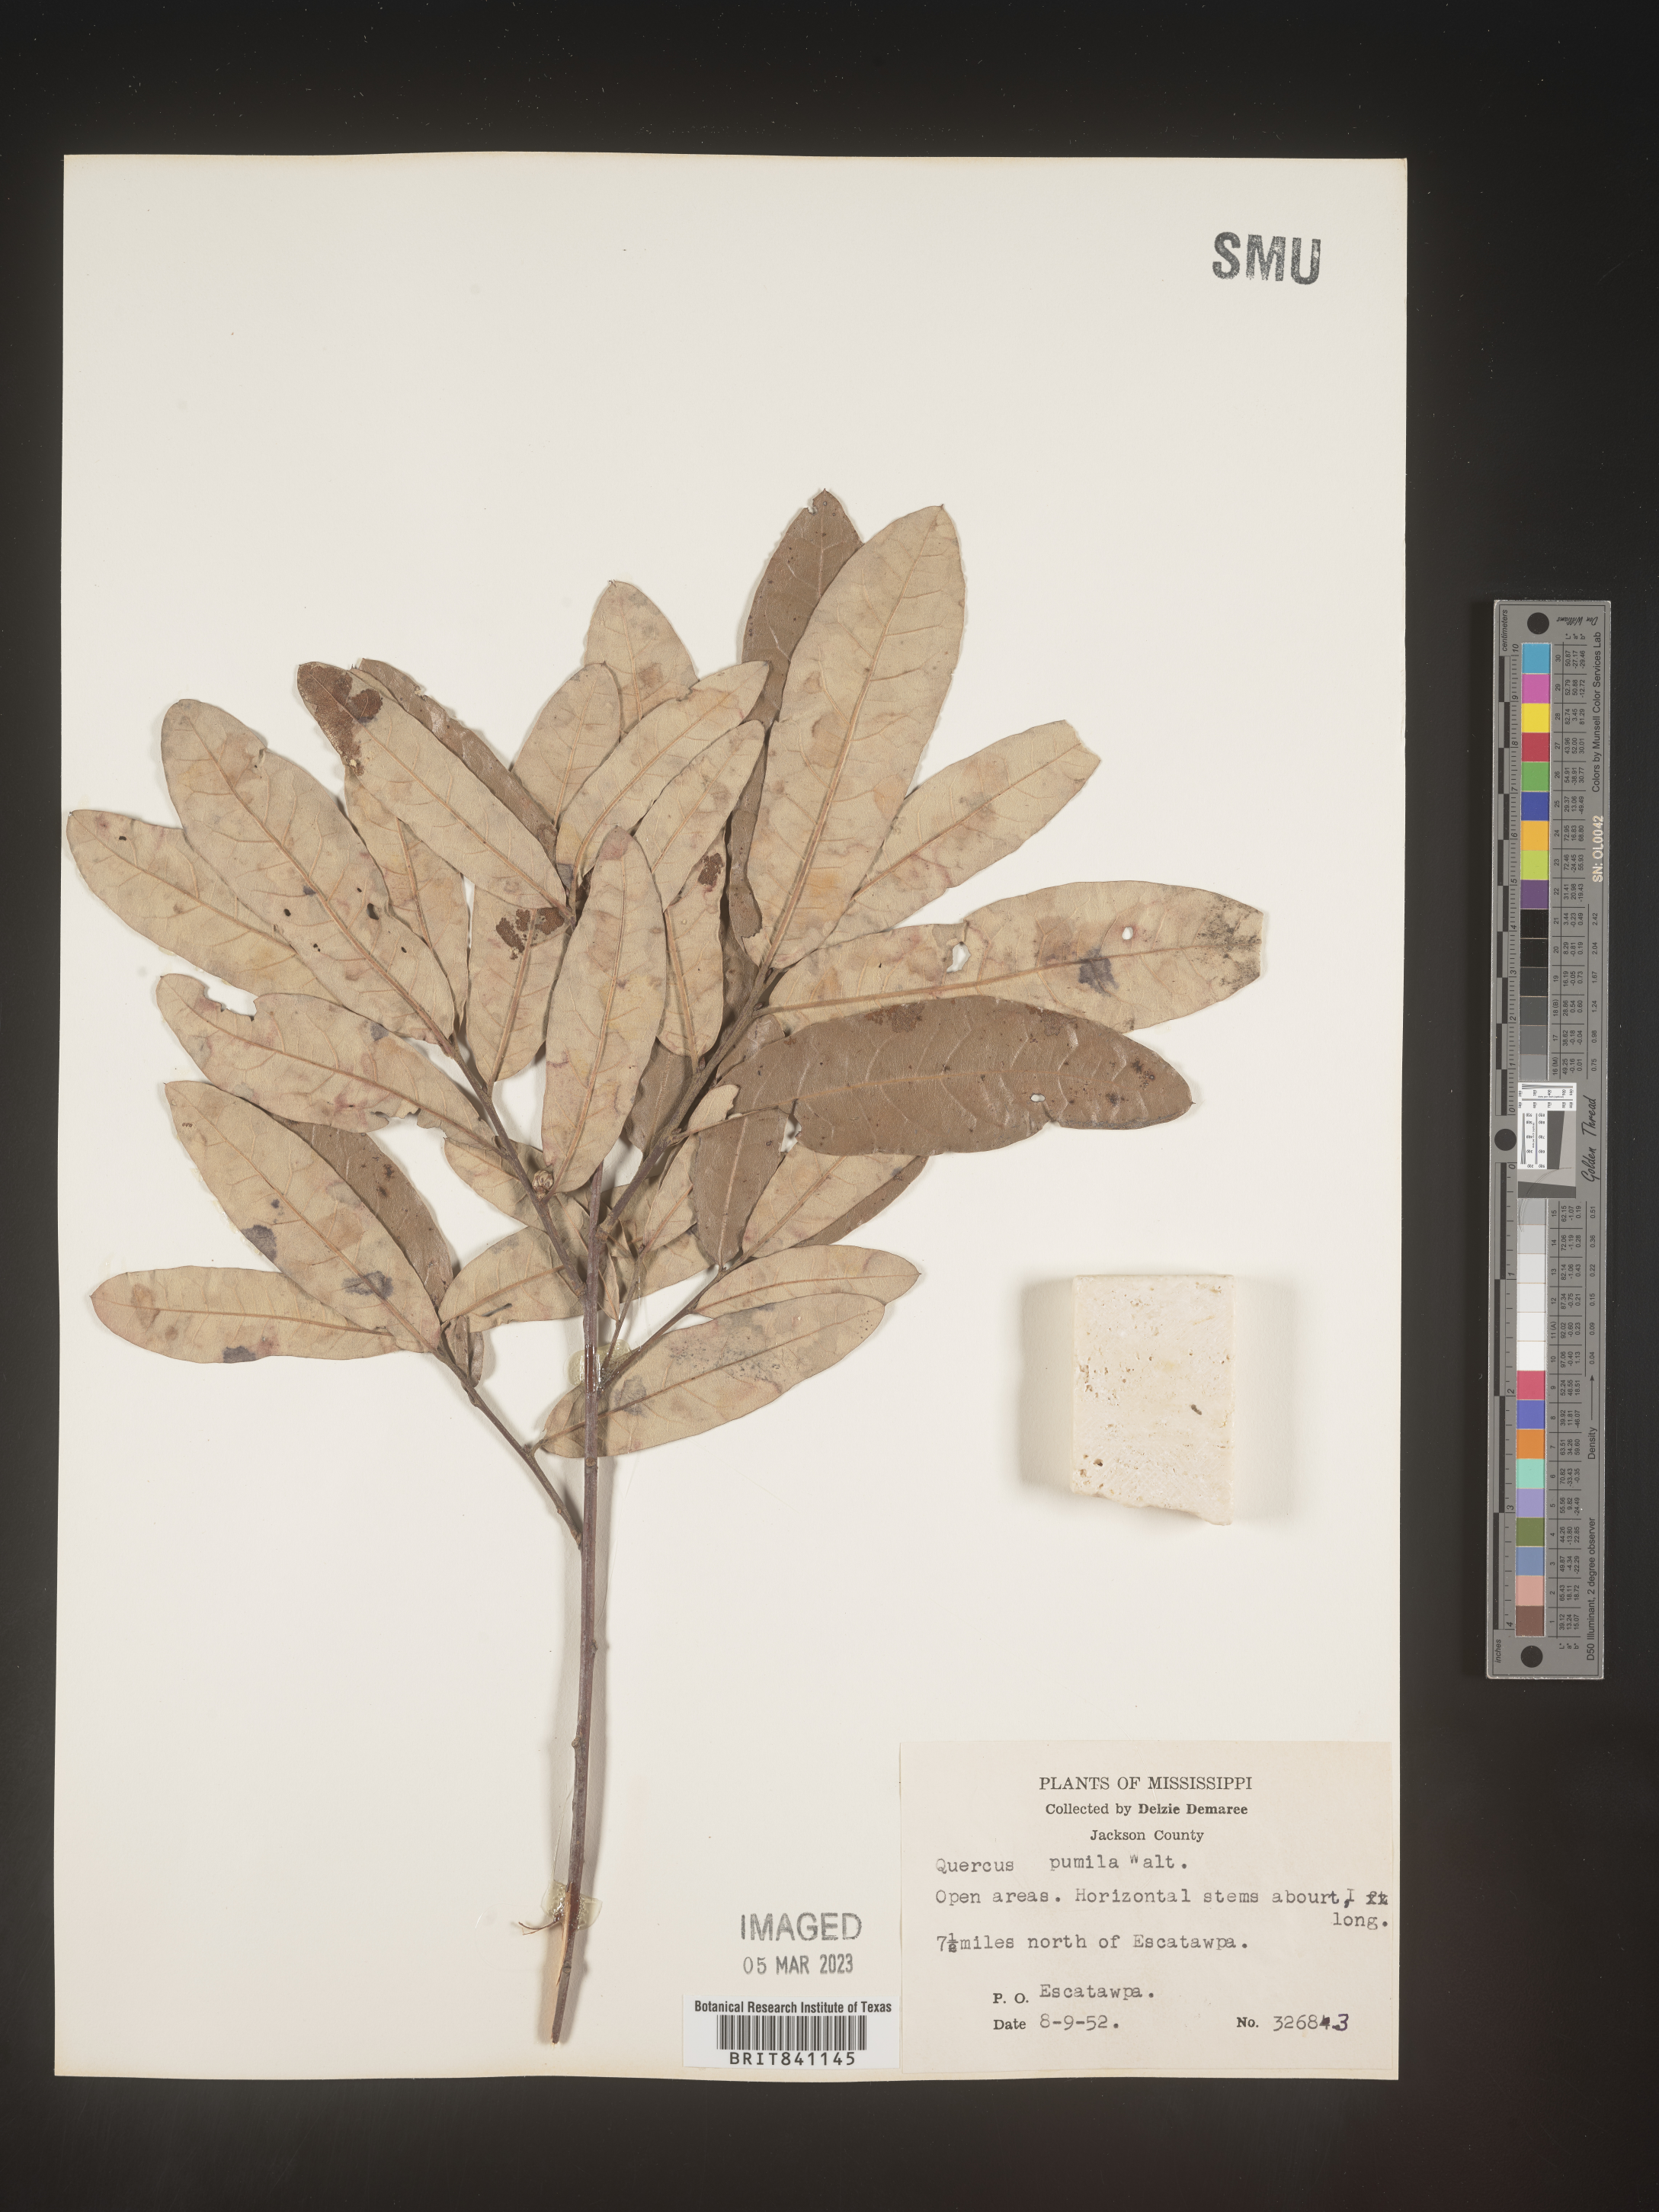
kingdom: Plantae
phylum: Tracheophyta
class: Magnoliopsida
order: Fagales
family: Fagaceae
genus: Quercus
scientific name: Quercus pumila
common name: Runner oak
